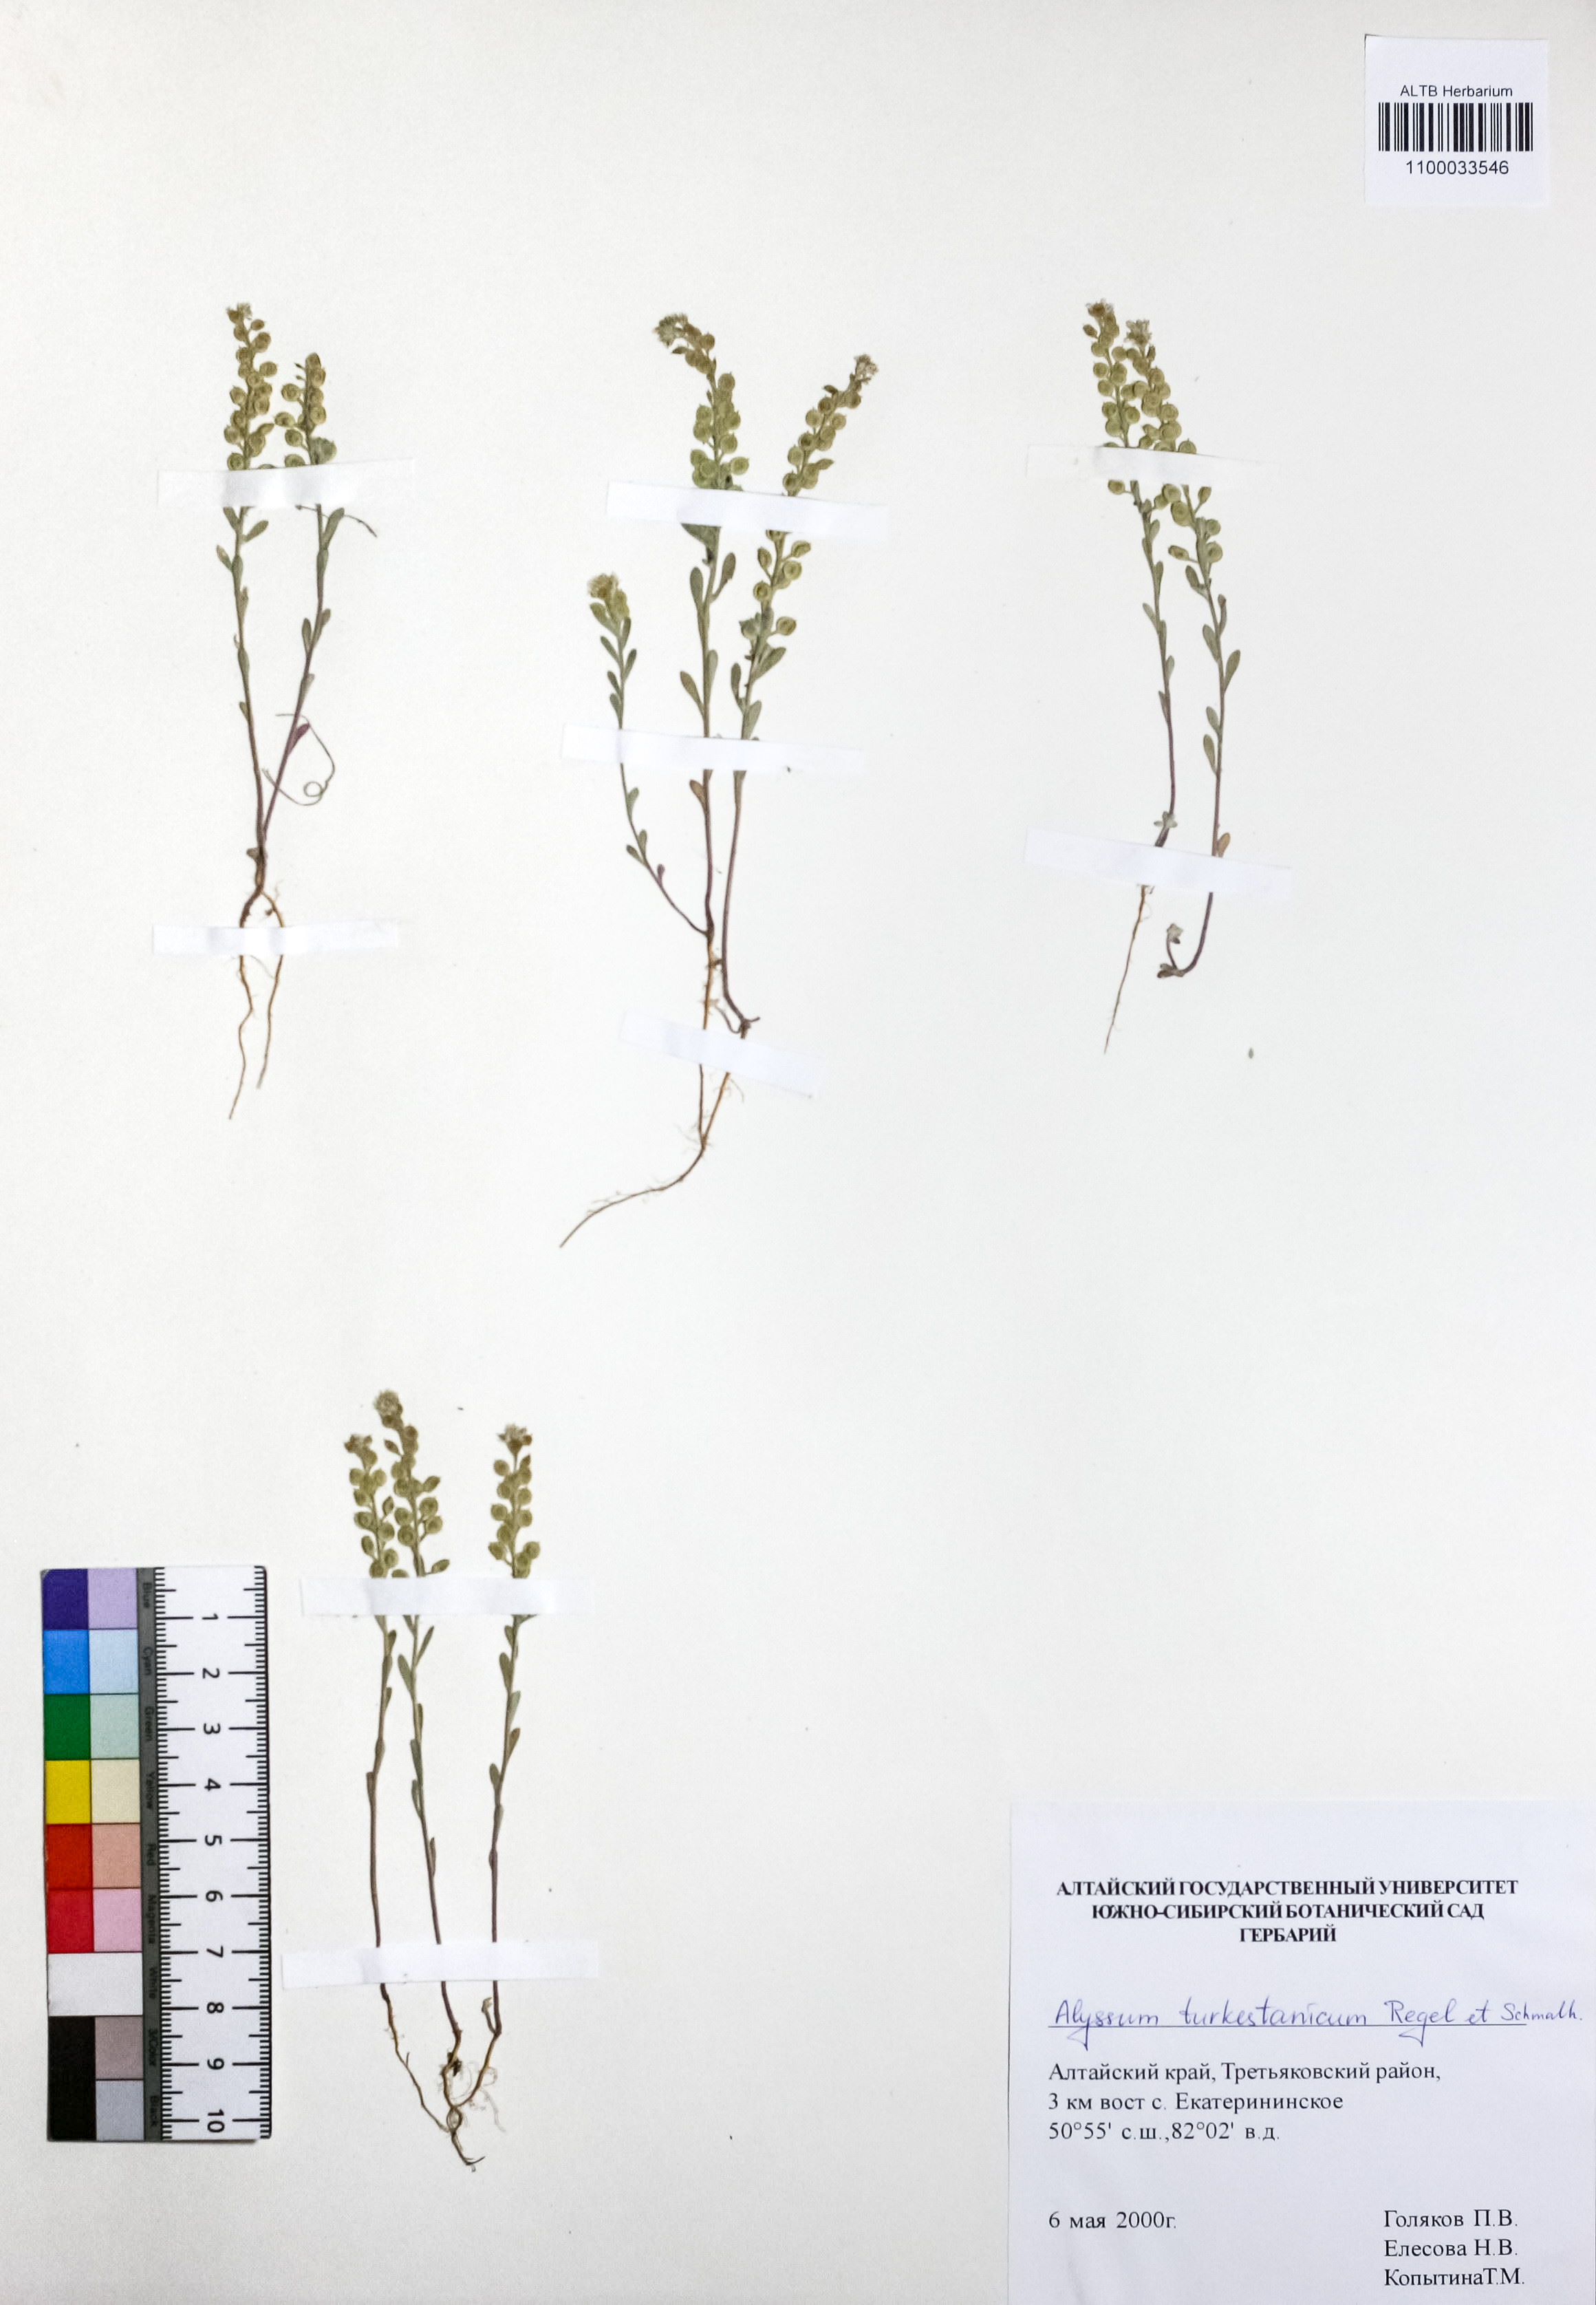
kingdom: Plantae
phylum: Tracheophyta
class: Magnoliopsida
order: Brassicales
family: Brassicaceae
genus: Alyssum
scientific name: Alyssum turkestanicum
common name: Desert alyssum
